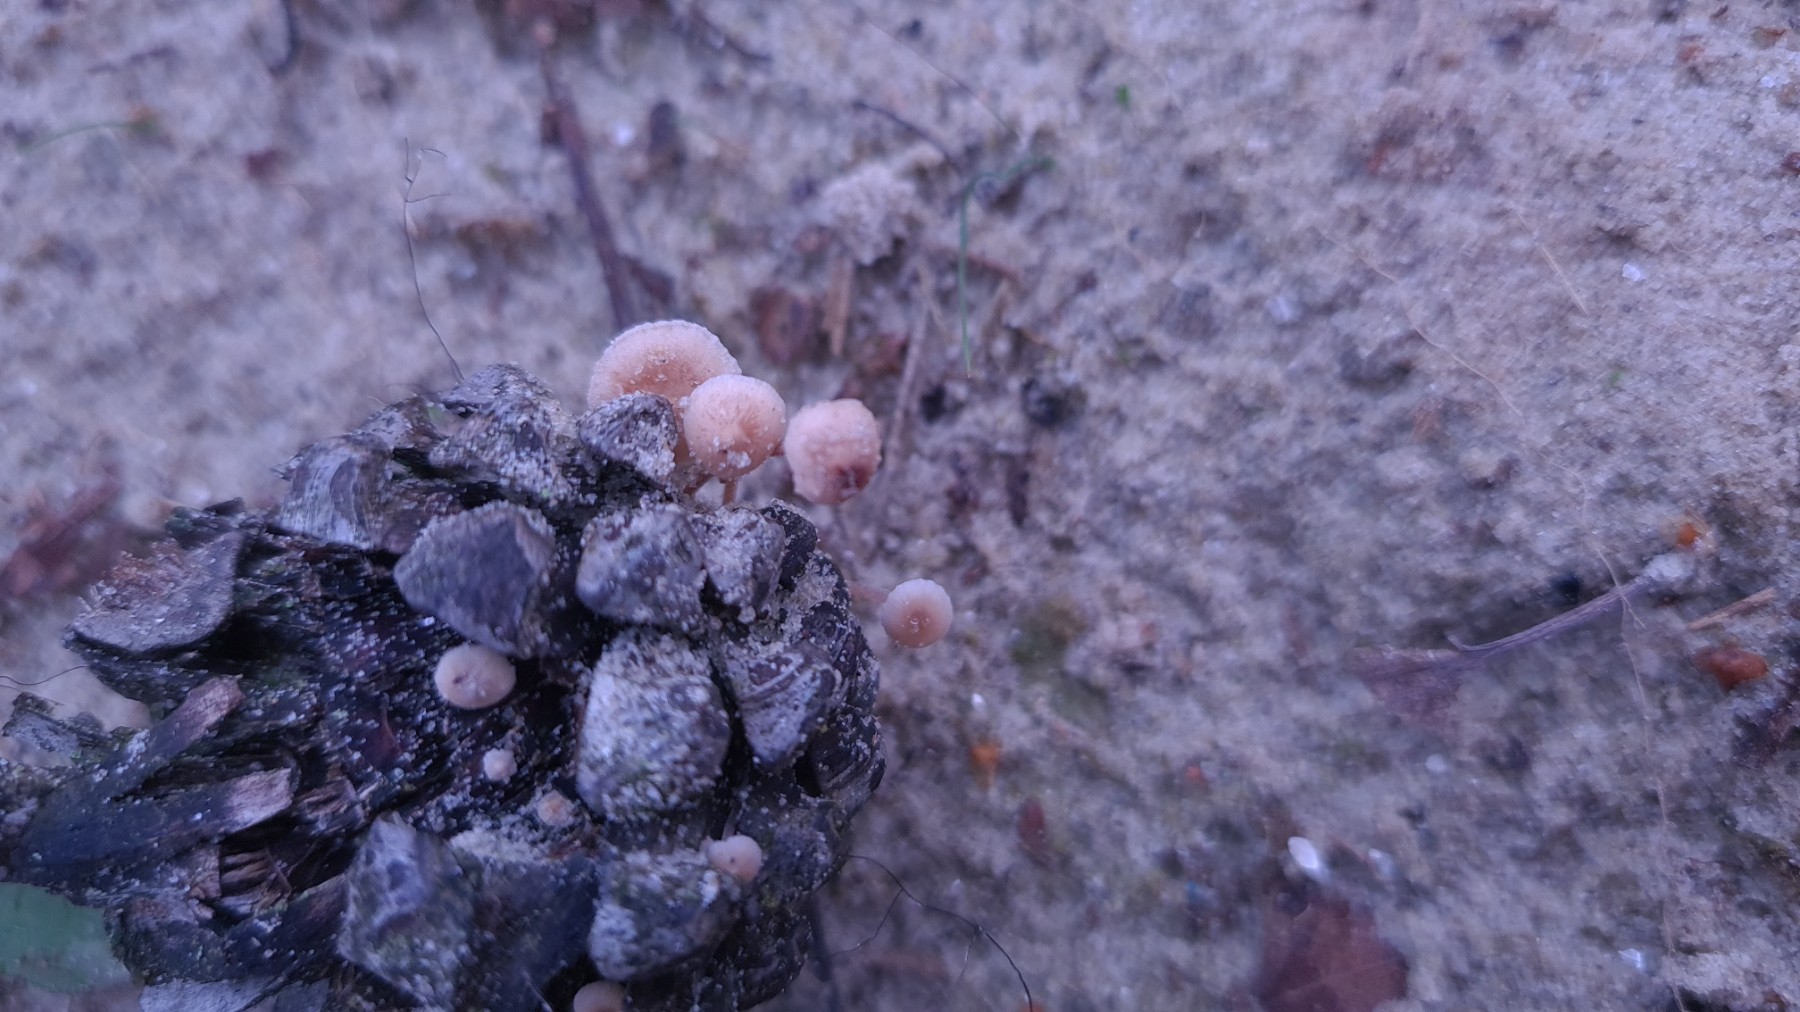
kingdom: Fungi
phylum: Basidiomycota
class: Agaricomycetes
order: Agaricales
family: Marasmiaceae
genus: Baeospora
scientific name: Baeospora myosura
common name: koglebruskhat
